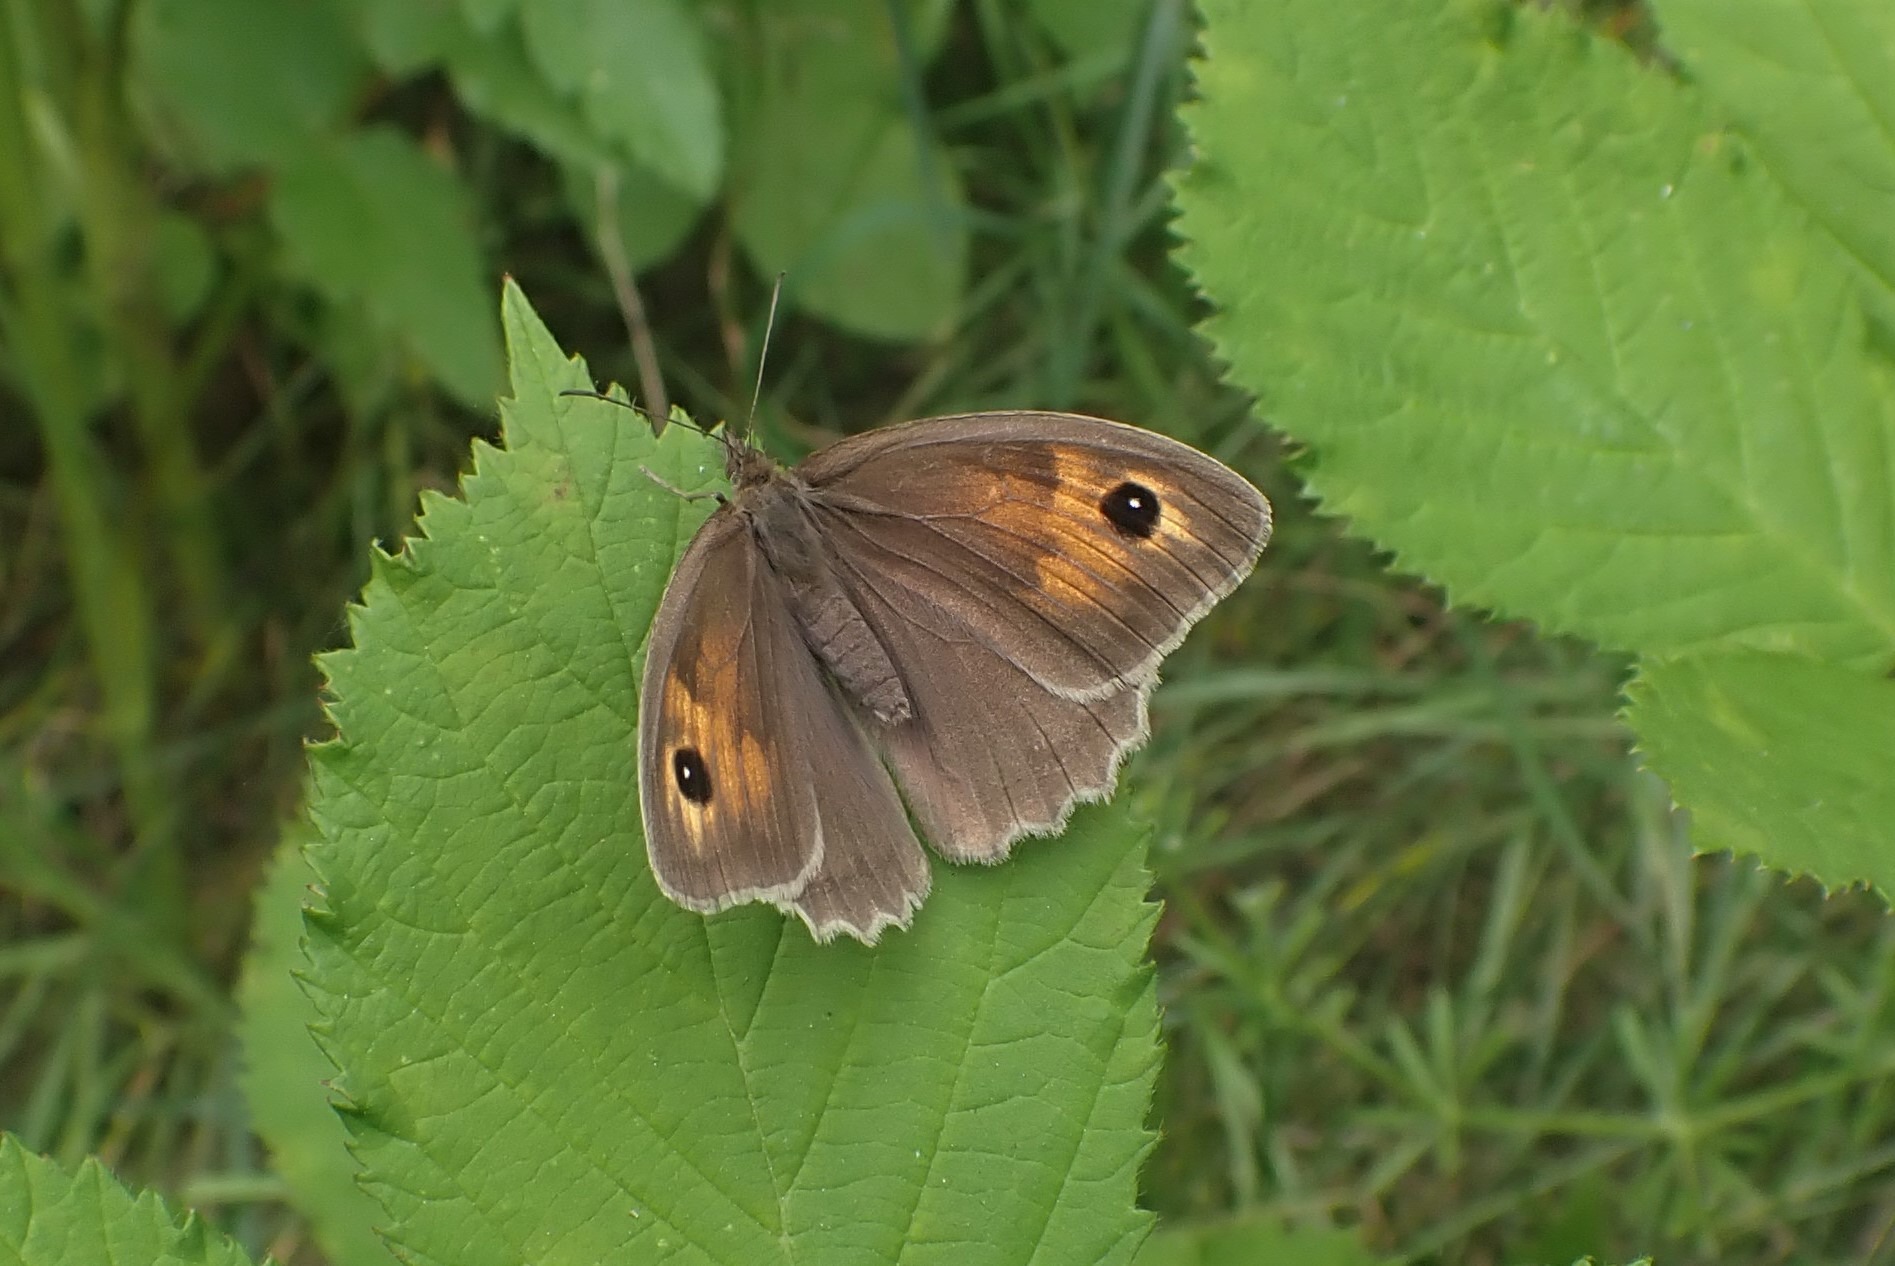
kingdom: Animalia
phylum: Arthropoda
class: Insecta
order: Lepidoptera
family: Nymphalidae
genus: Maniola
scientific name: Maniola jurtina
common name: Græsrandøje
